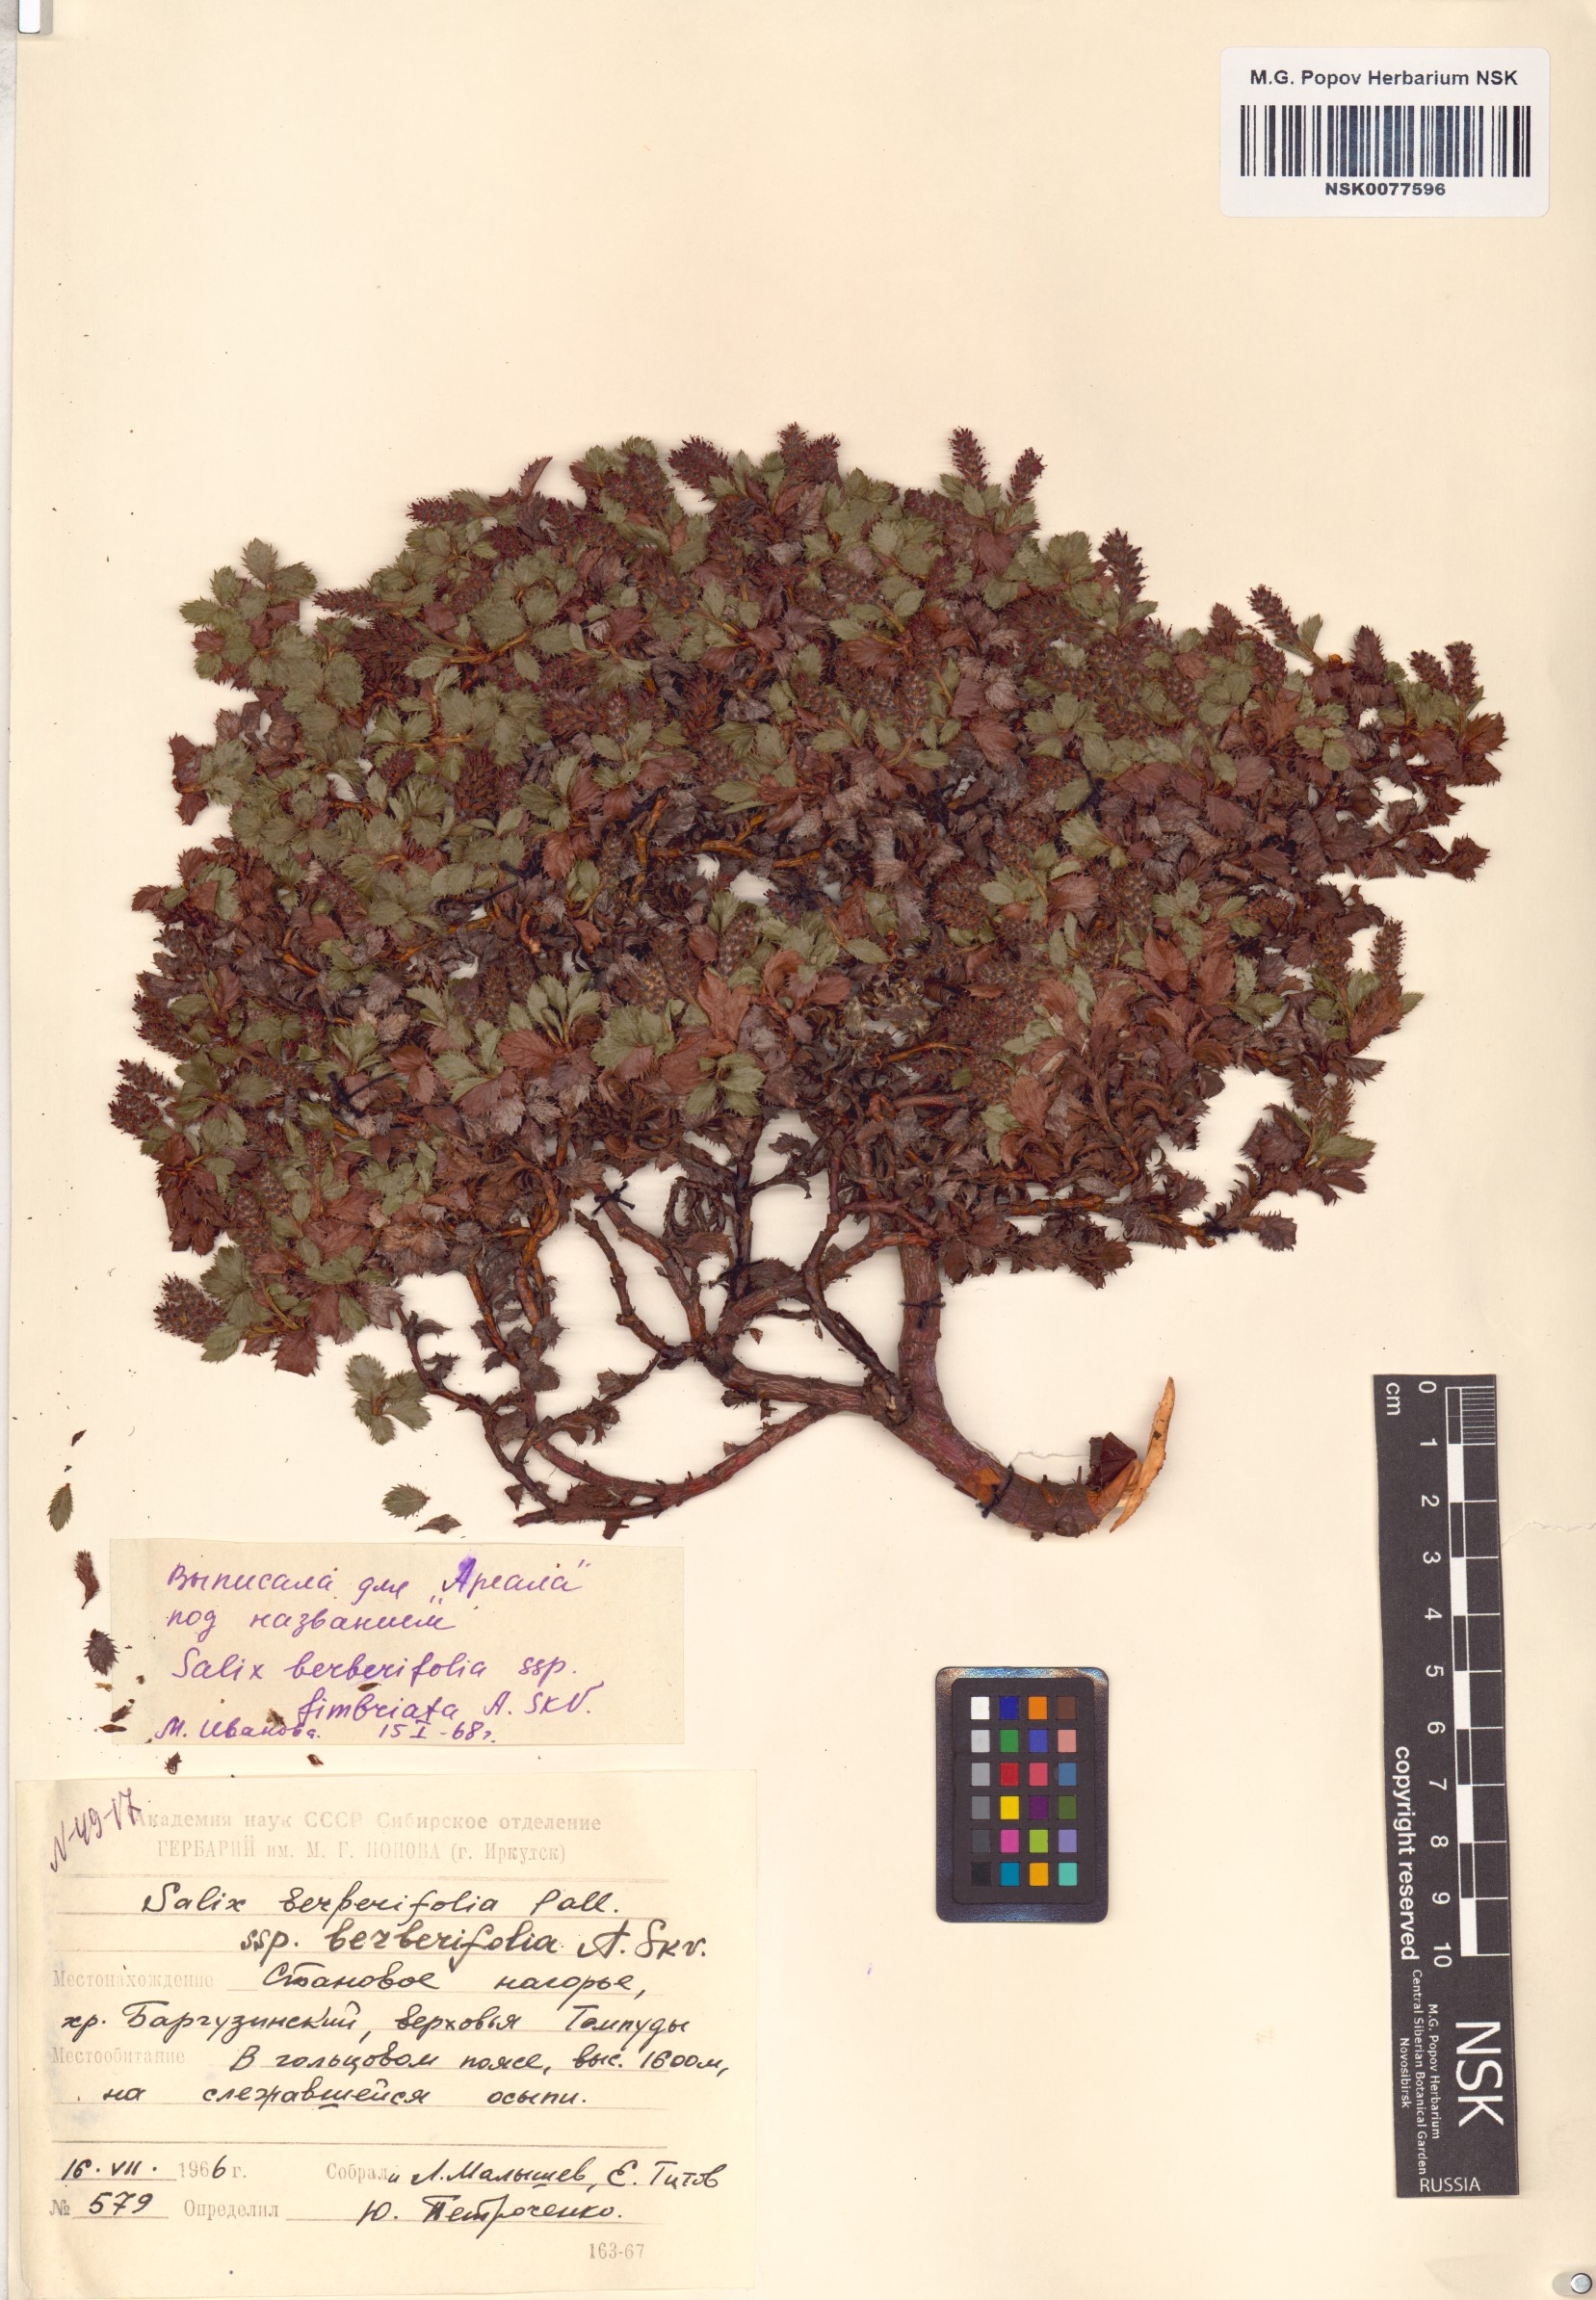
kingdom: Plantae
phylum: Tracheophyta
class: Magnoliopsida
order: Malpighiales
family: Salicaceae
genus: Salix
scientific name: Salix berberifolia
